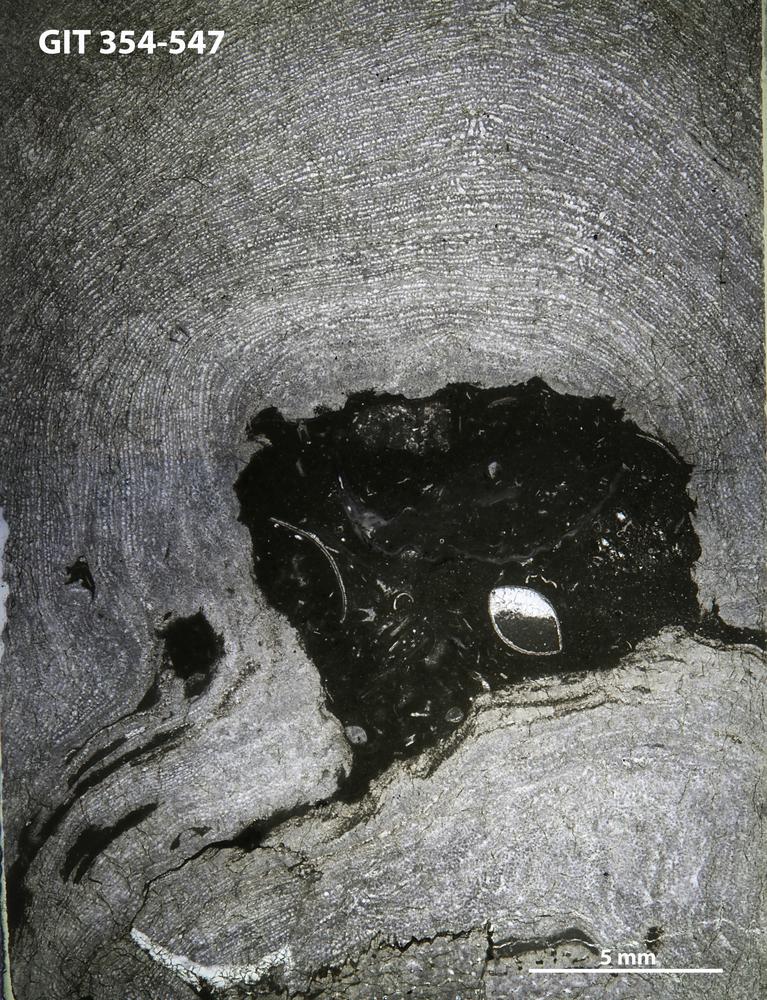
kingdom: Animalia
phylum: Porifera
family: Clathrodictyidae
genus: Clathrodictyon
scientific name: Clathrodictyon kudriavzevi
